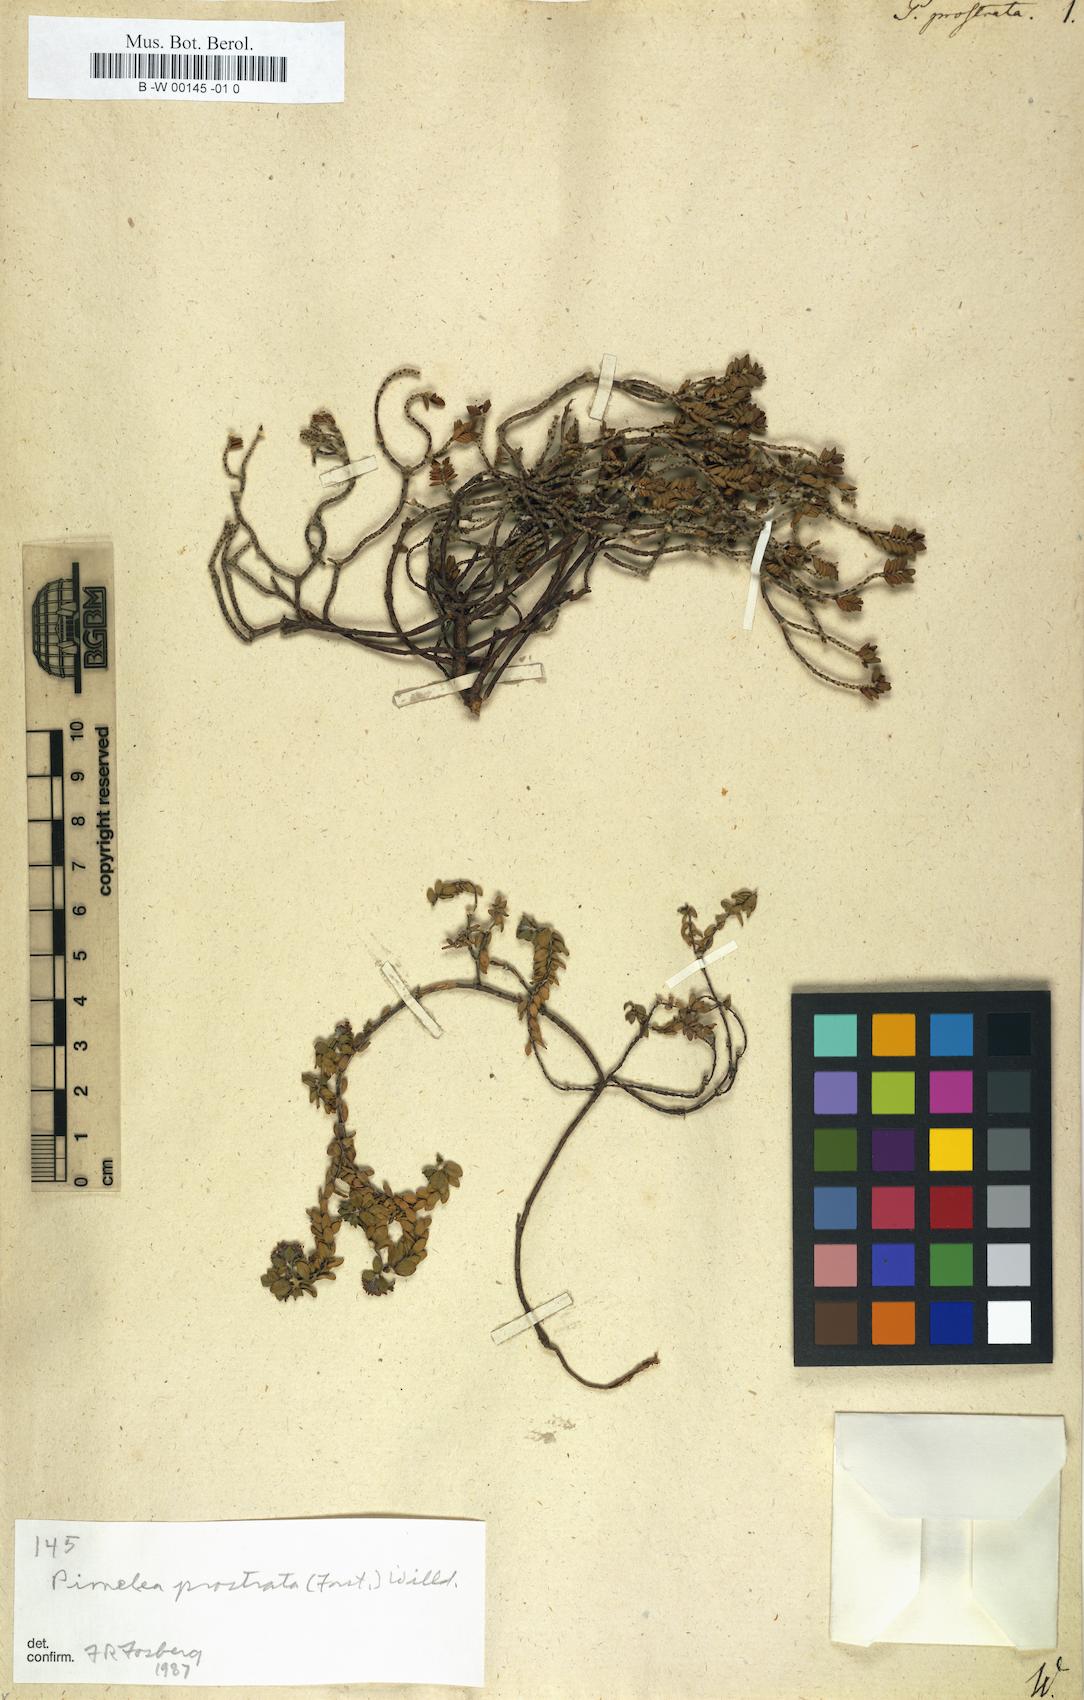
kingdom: Plantae
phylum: Tracheophyta
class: Magnoliopsida
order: Malvales
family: Thymelaeaceae
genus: Pimelea
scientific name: Pimelea prostrata
